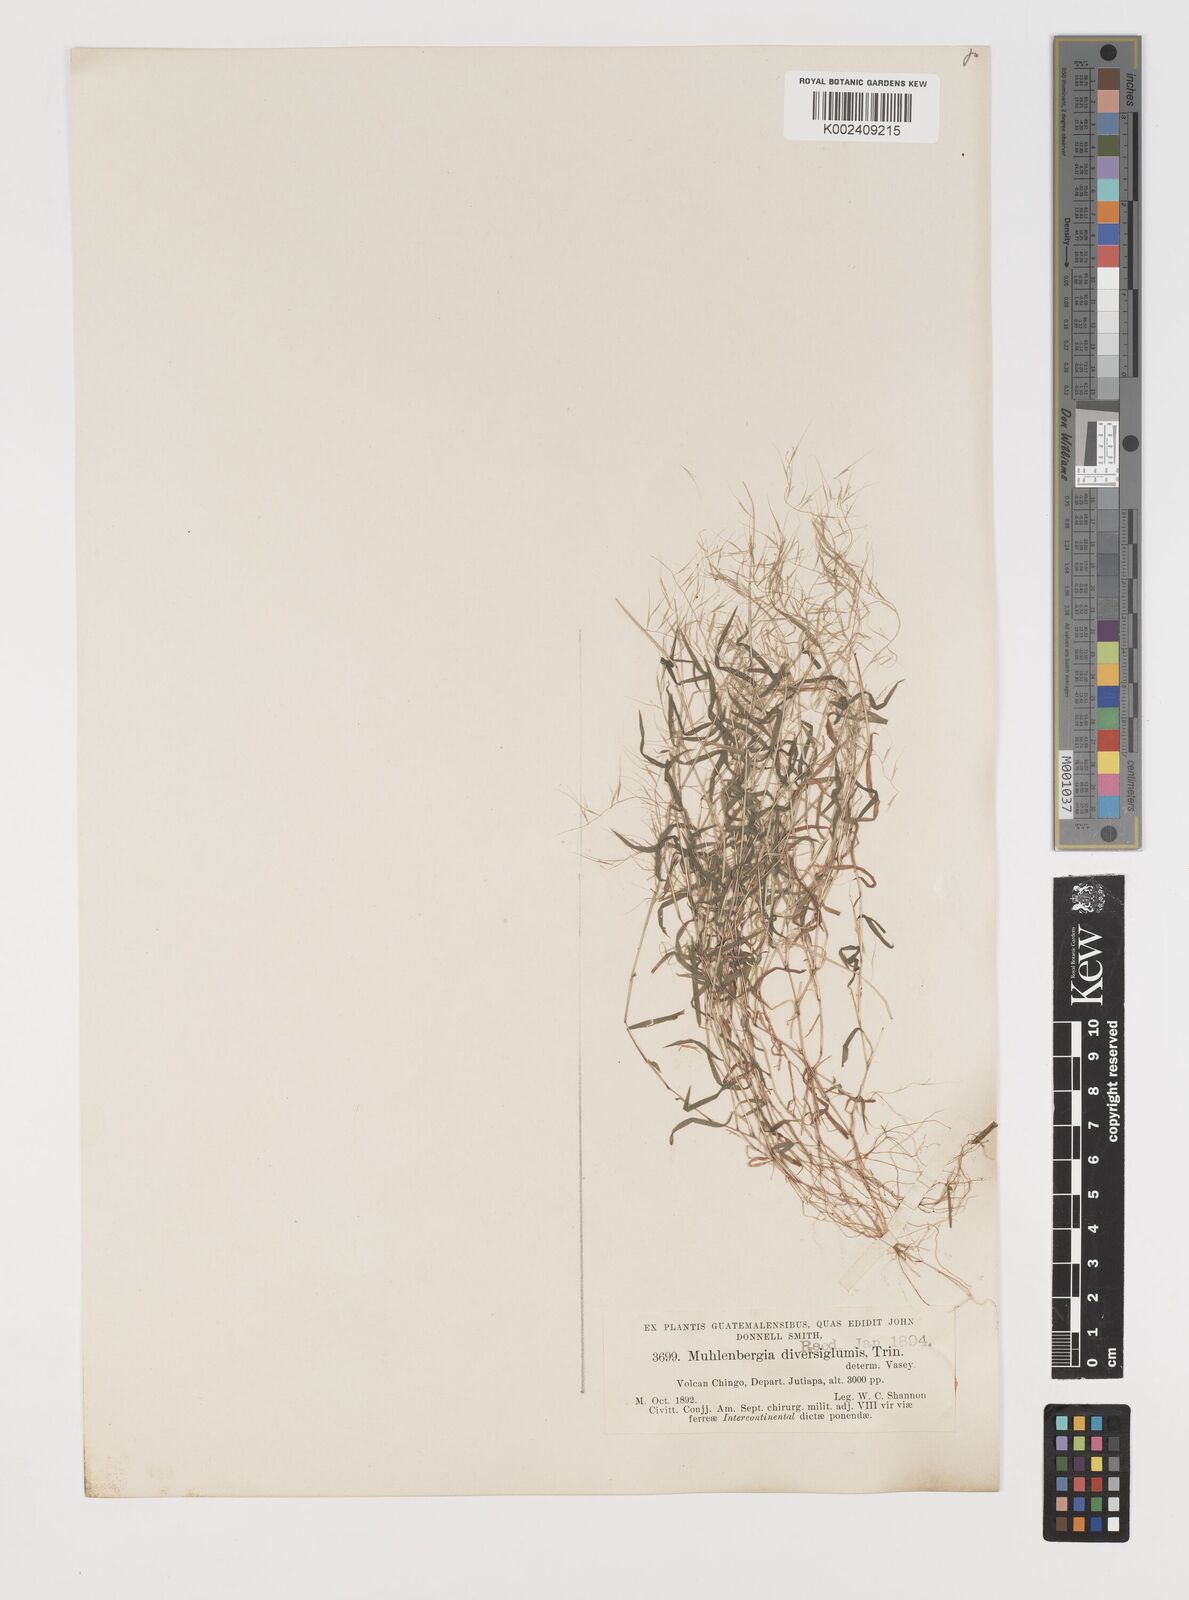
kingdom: Plantae
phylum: Tracheophyta
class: Liliopsida
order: Poales
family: Poaceae
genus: Muhlenbergia
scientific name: Muhlenbergia diversiglumis
